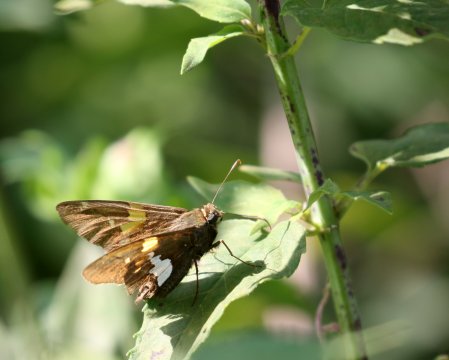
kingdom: Animalia
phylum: Arthropoda
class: Insecta
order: Lepidoptera
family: Hesperiidae
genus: Epargyreus
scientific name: Epargyreus clarus
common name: Silver-spotted Skipper
